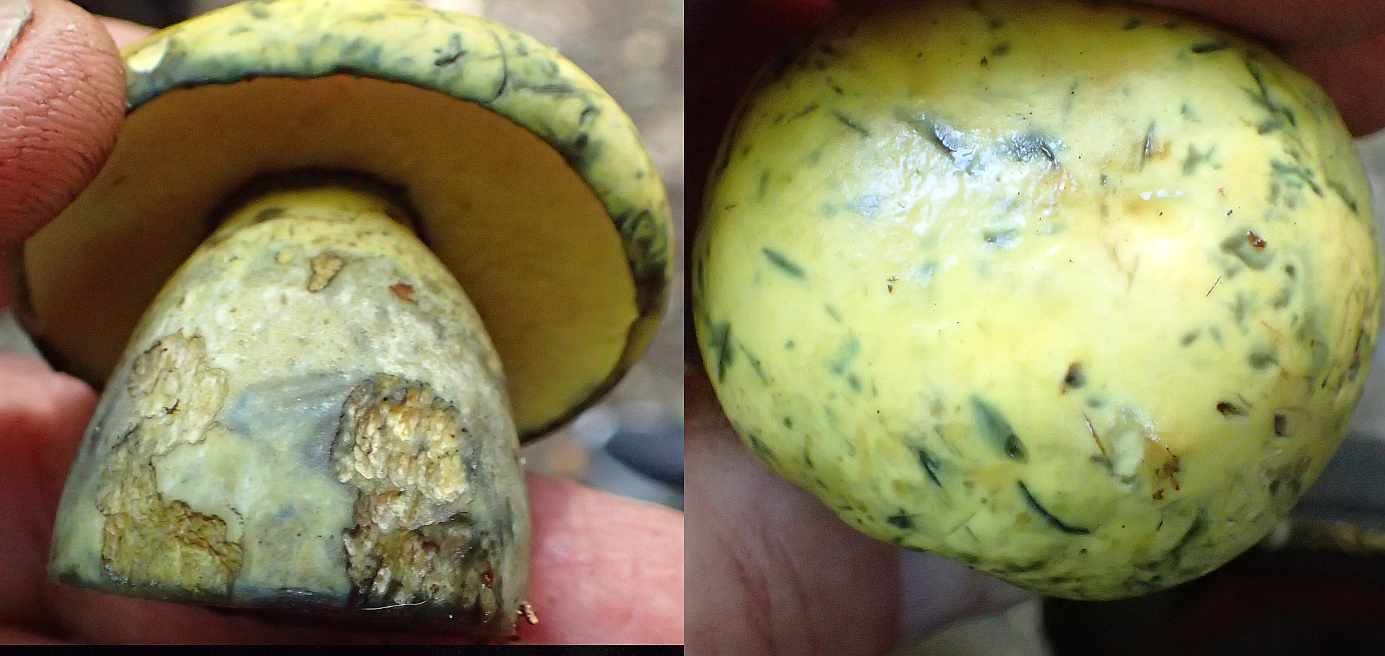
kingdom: Fungi
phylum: Basidiomycota
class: Agaricomycetes
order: Boletales
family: Boletaceae
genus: Neoboletus
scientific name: Neoboletus praestigiator
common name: gul indigorørhat
